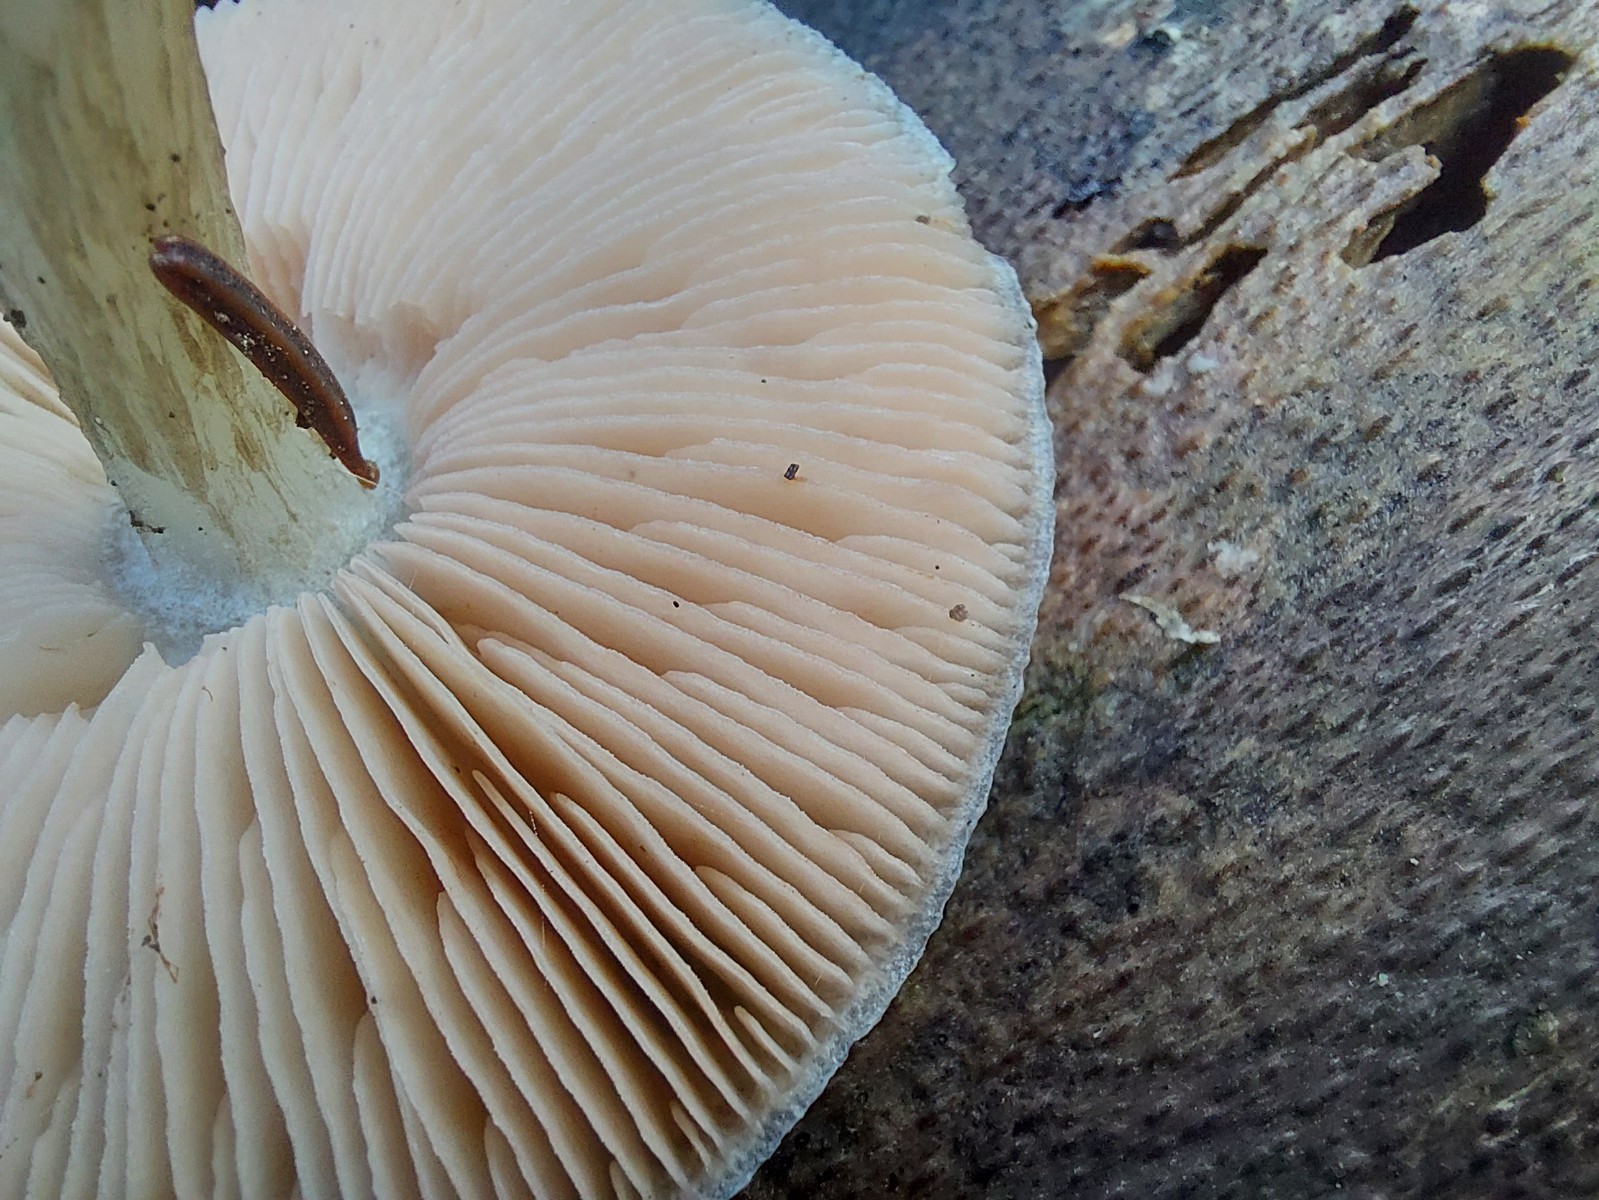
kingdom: Fungi
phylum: Basidiomycota
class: Agaricomycetes
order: Agaricales
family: Pluteaceae
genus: Pluteus
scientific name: Pluteus
